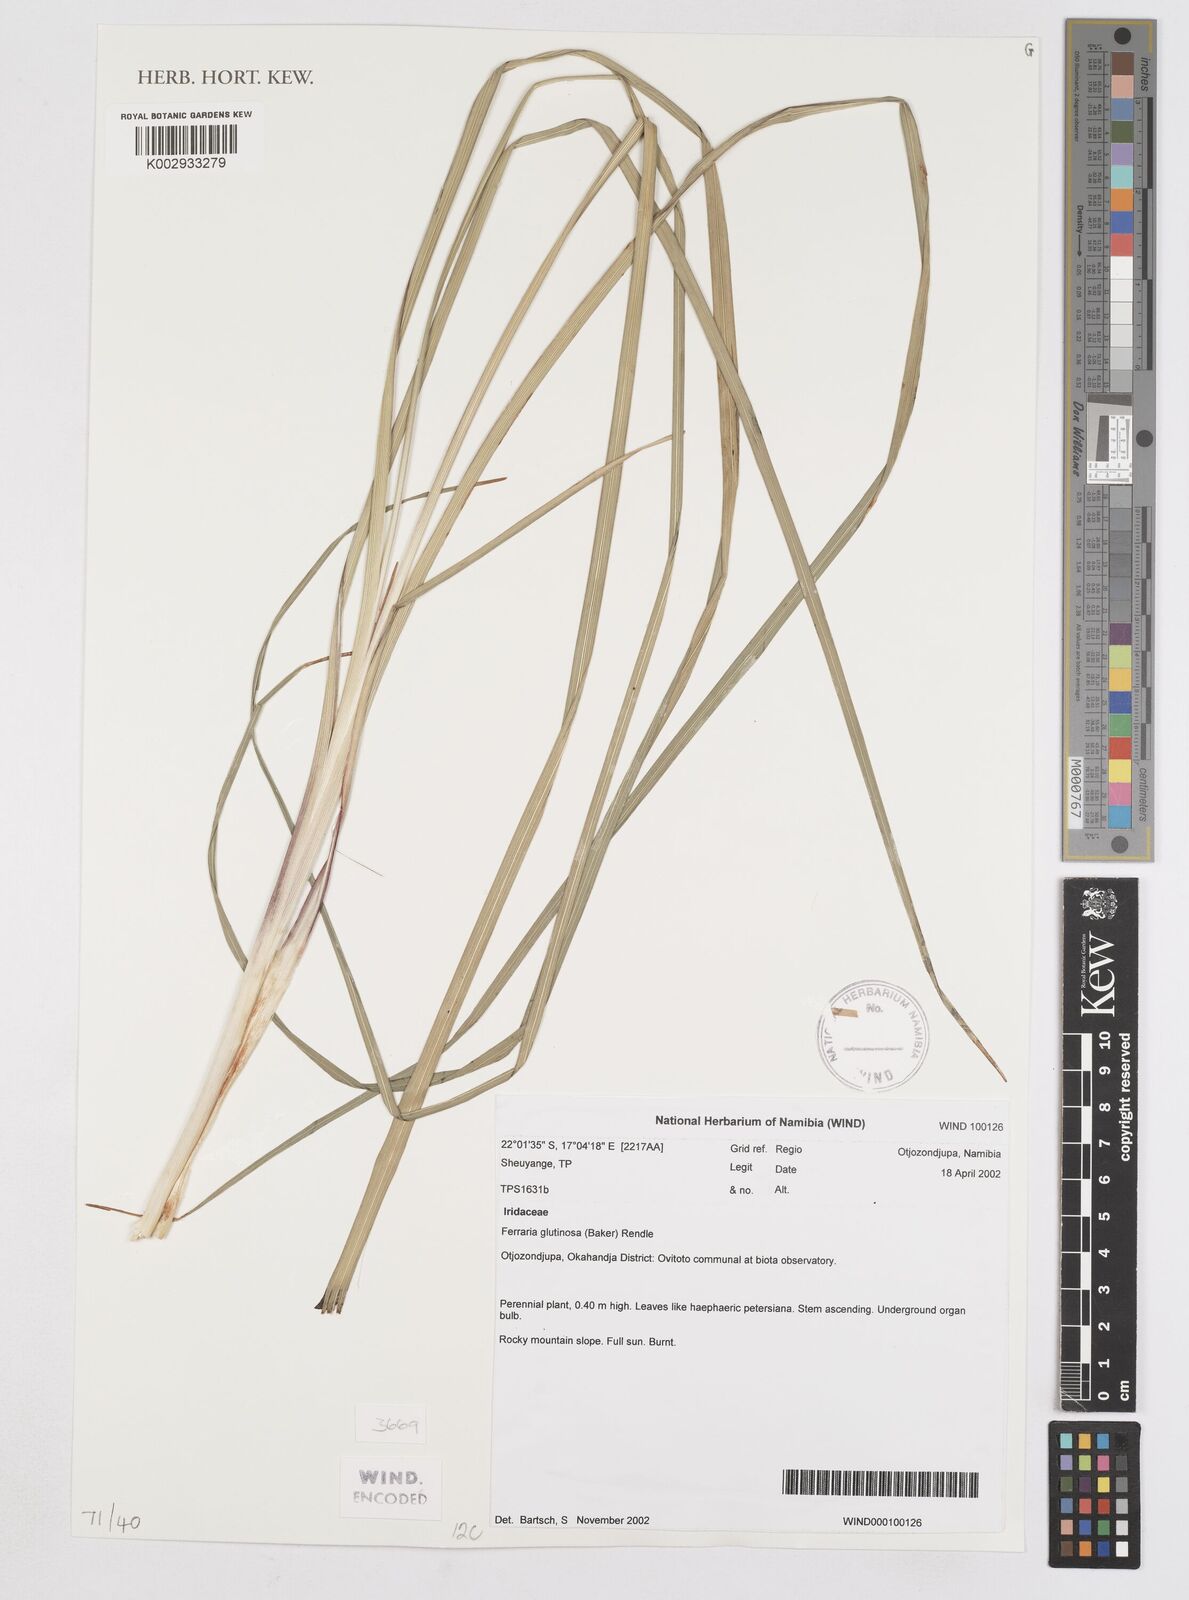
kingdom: Plantae
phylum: Tracheophyta
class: Liliopsida
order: Asparagales
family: Iridaceae
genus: Ferraria
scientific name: Ferraria glutinosa
